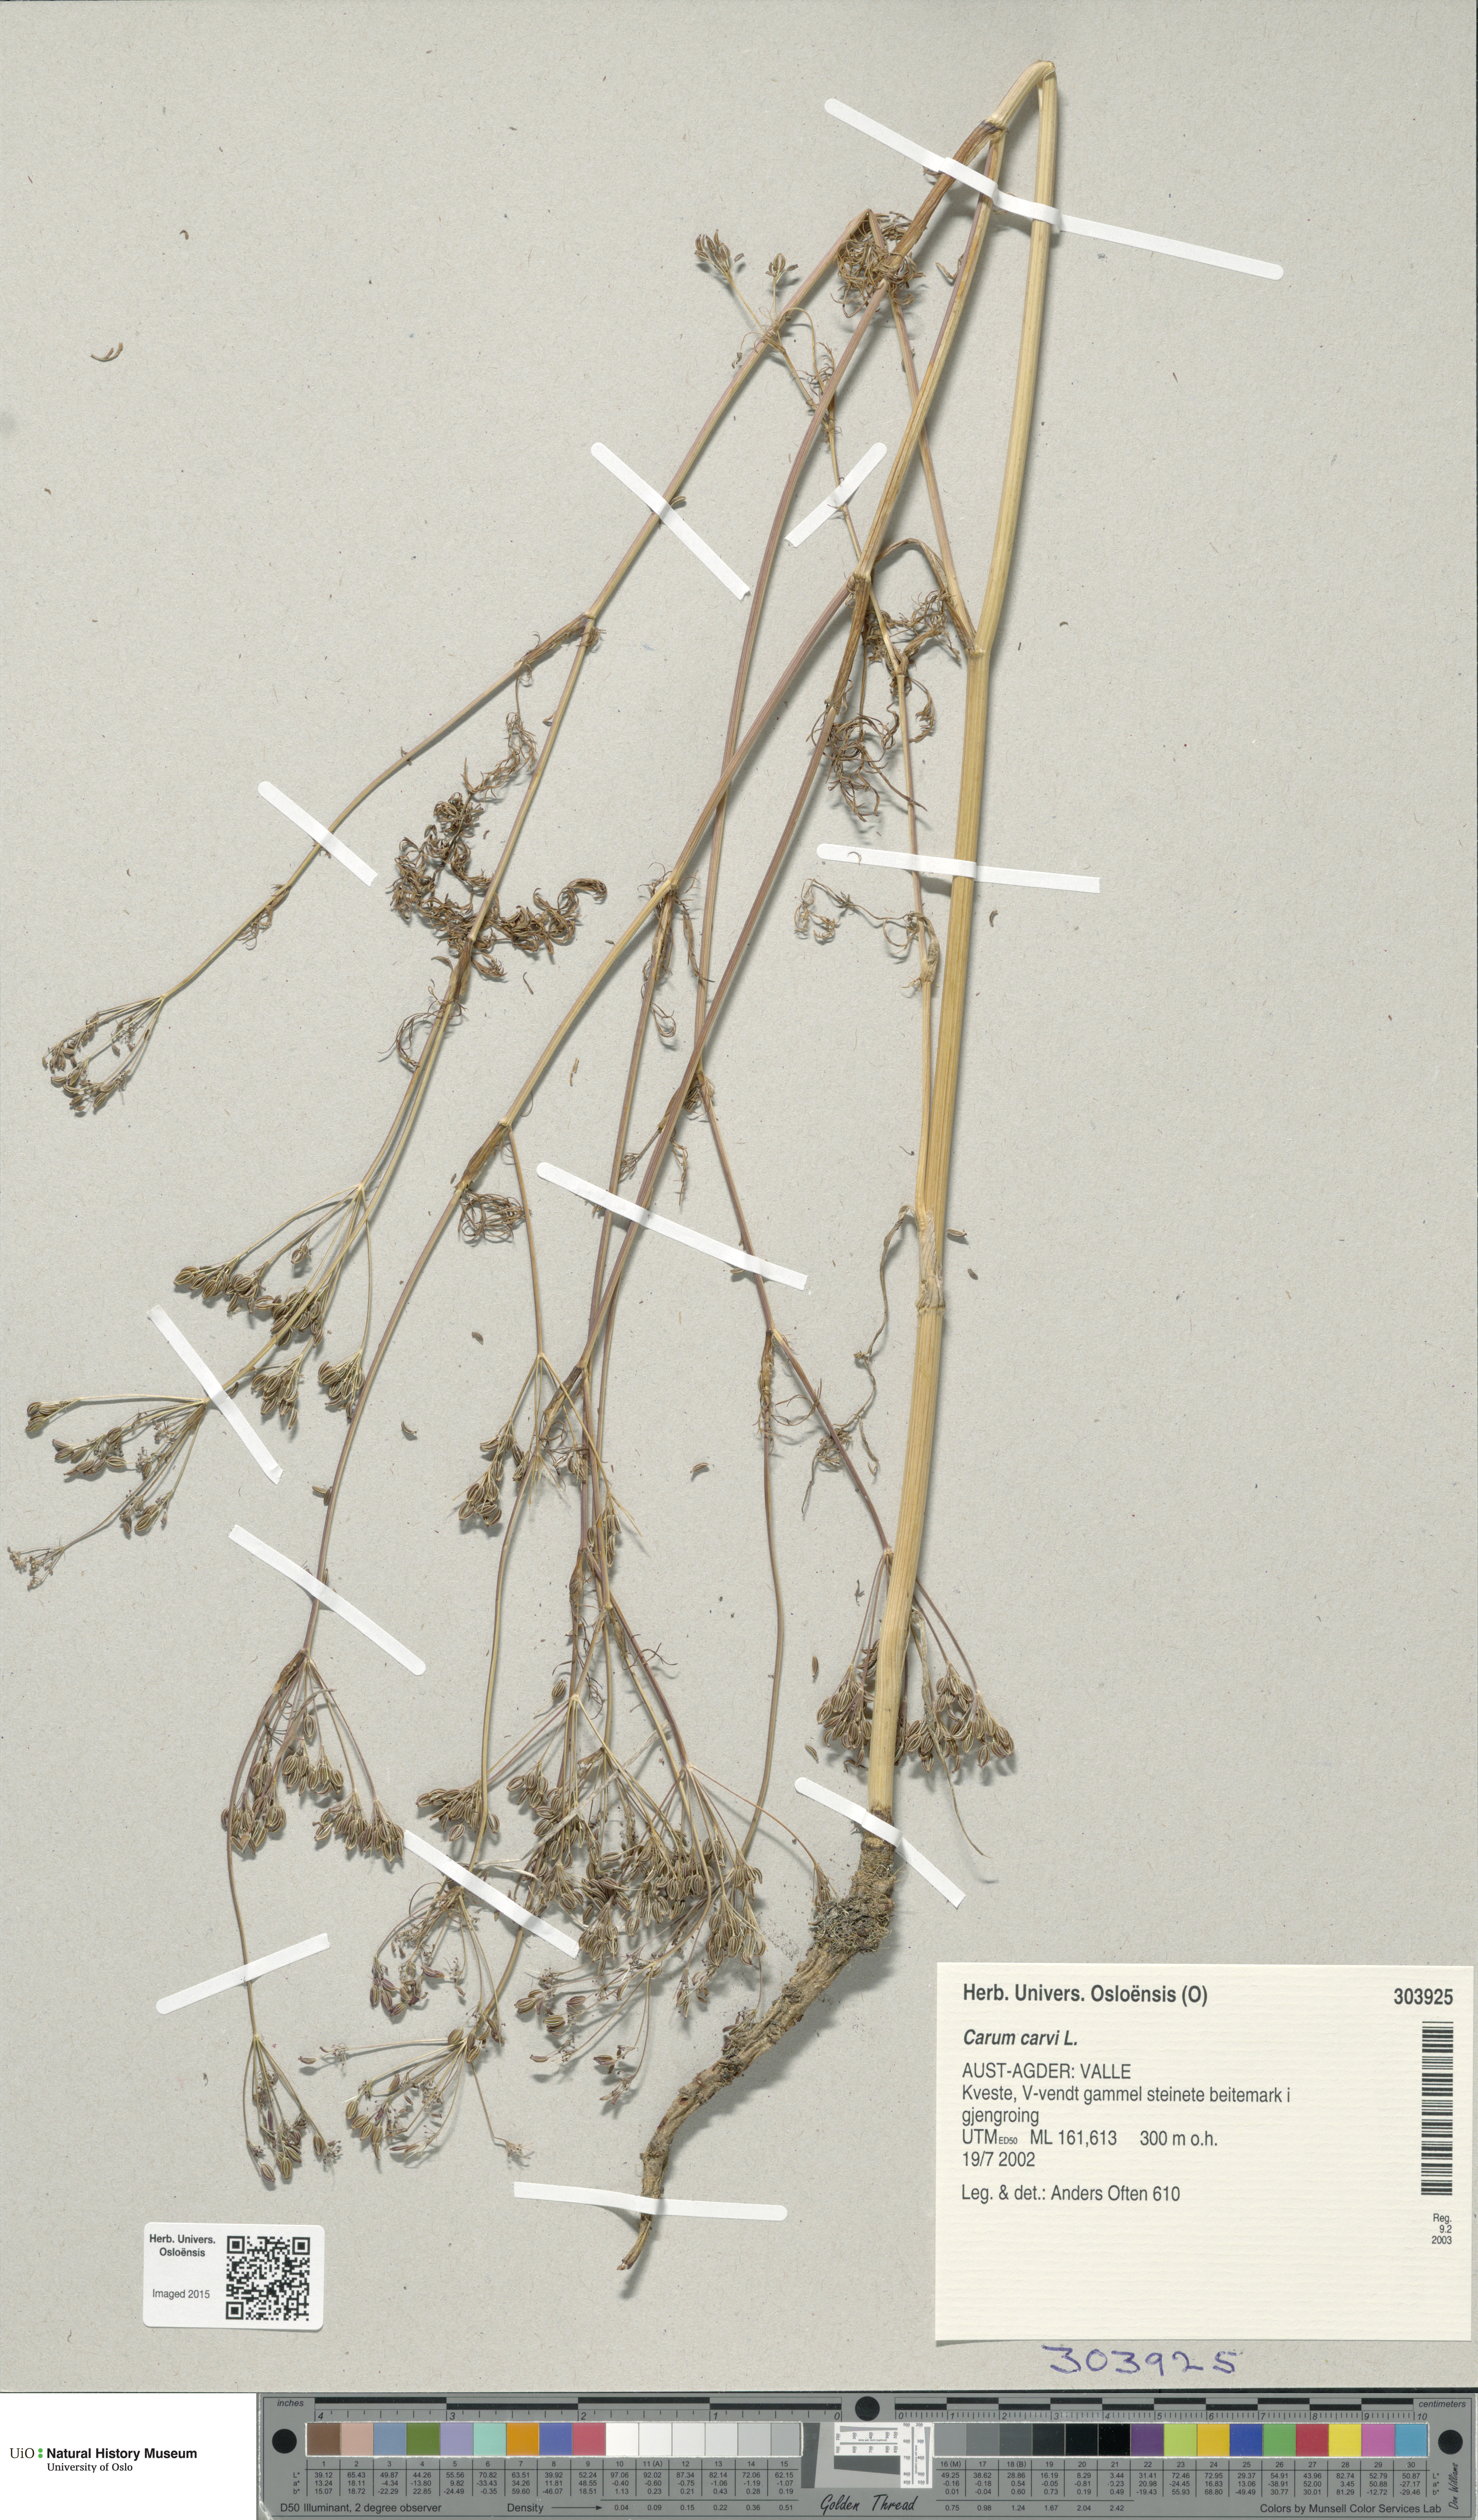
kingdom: Plantae
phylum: Tracheophyta
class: Magnoliopsida
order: Apiales
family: Apiaceae
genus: Carum
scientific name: Carum carvi
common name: Caraway
